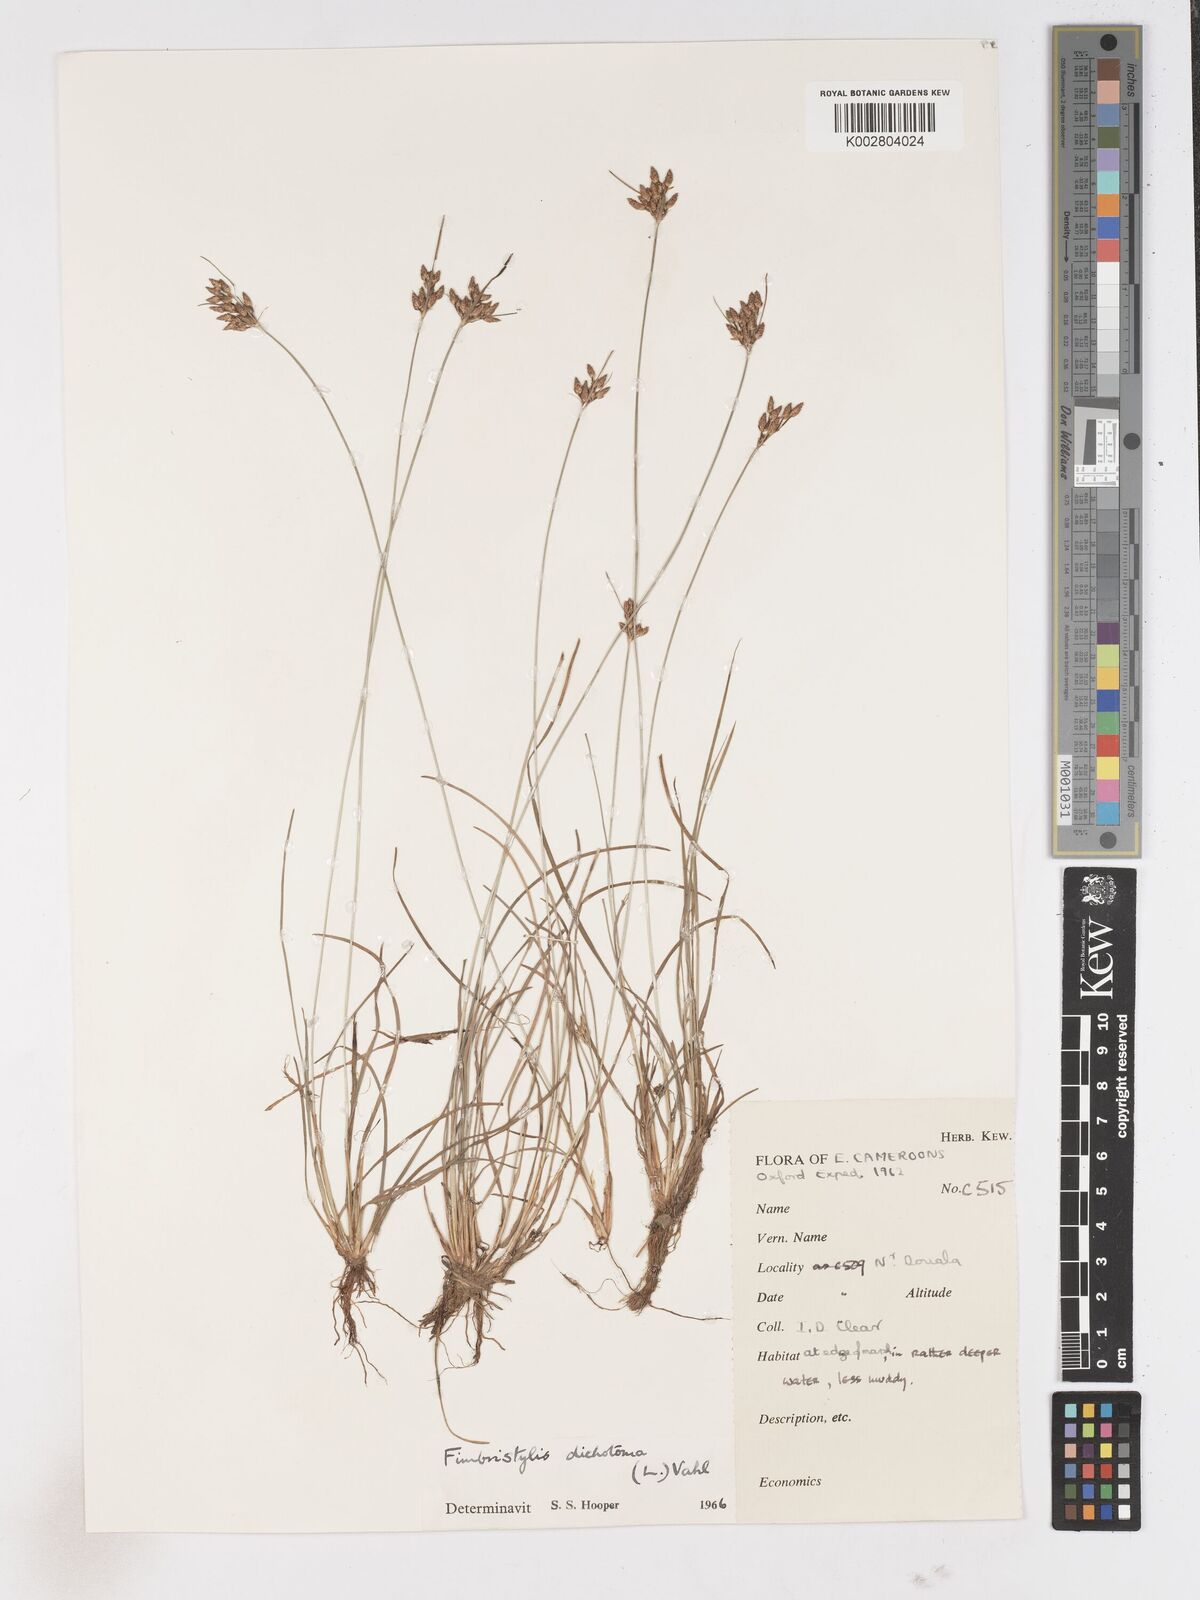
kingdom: Plantae
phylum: Tracheophyta
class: Liliopsida
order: Poales
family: Cyperaceae
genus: Fimbristylis
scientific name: Fimbristylis dichotoma
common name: Forked fimbry
